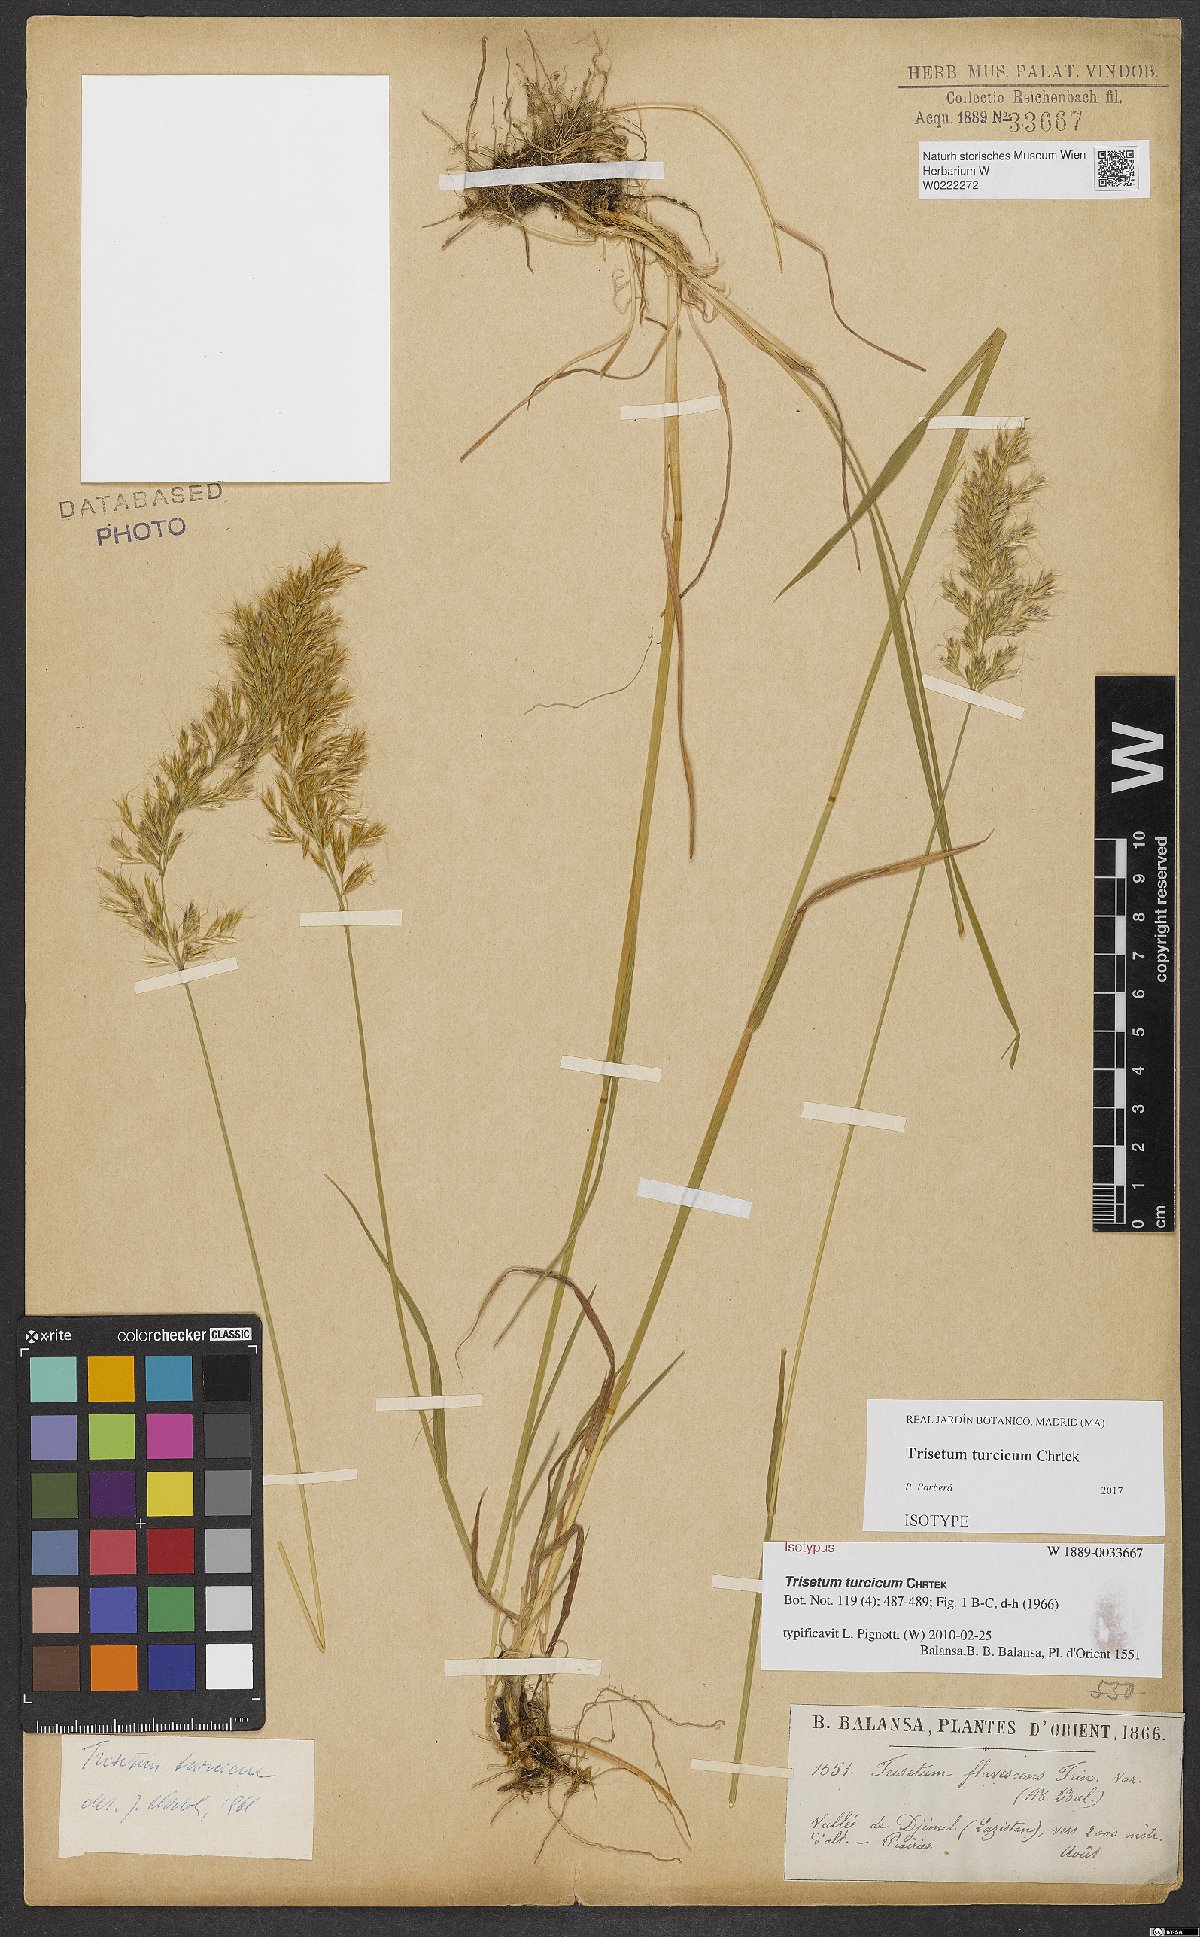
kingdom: Plantae
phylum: Tracheophyta
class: Liliopsida
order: Poales
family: Poaceae
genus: Sibirotrisetum
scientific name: Sibirotrisetum turcicum
